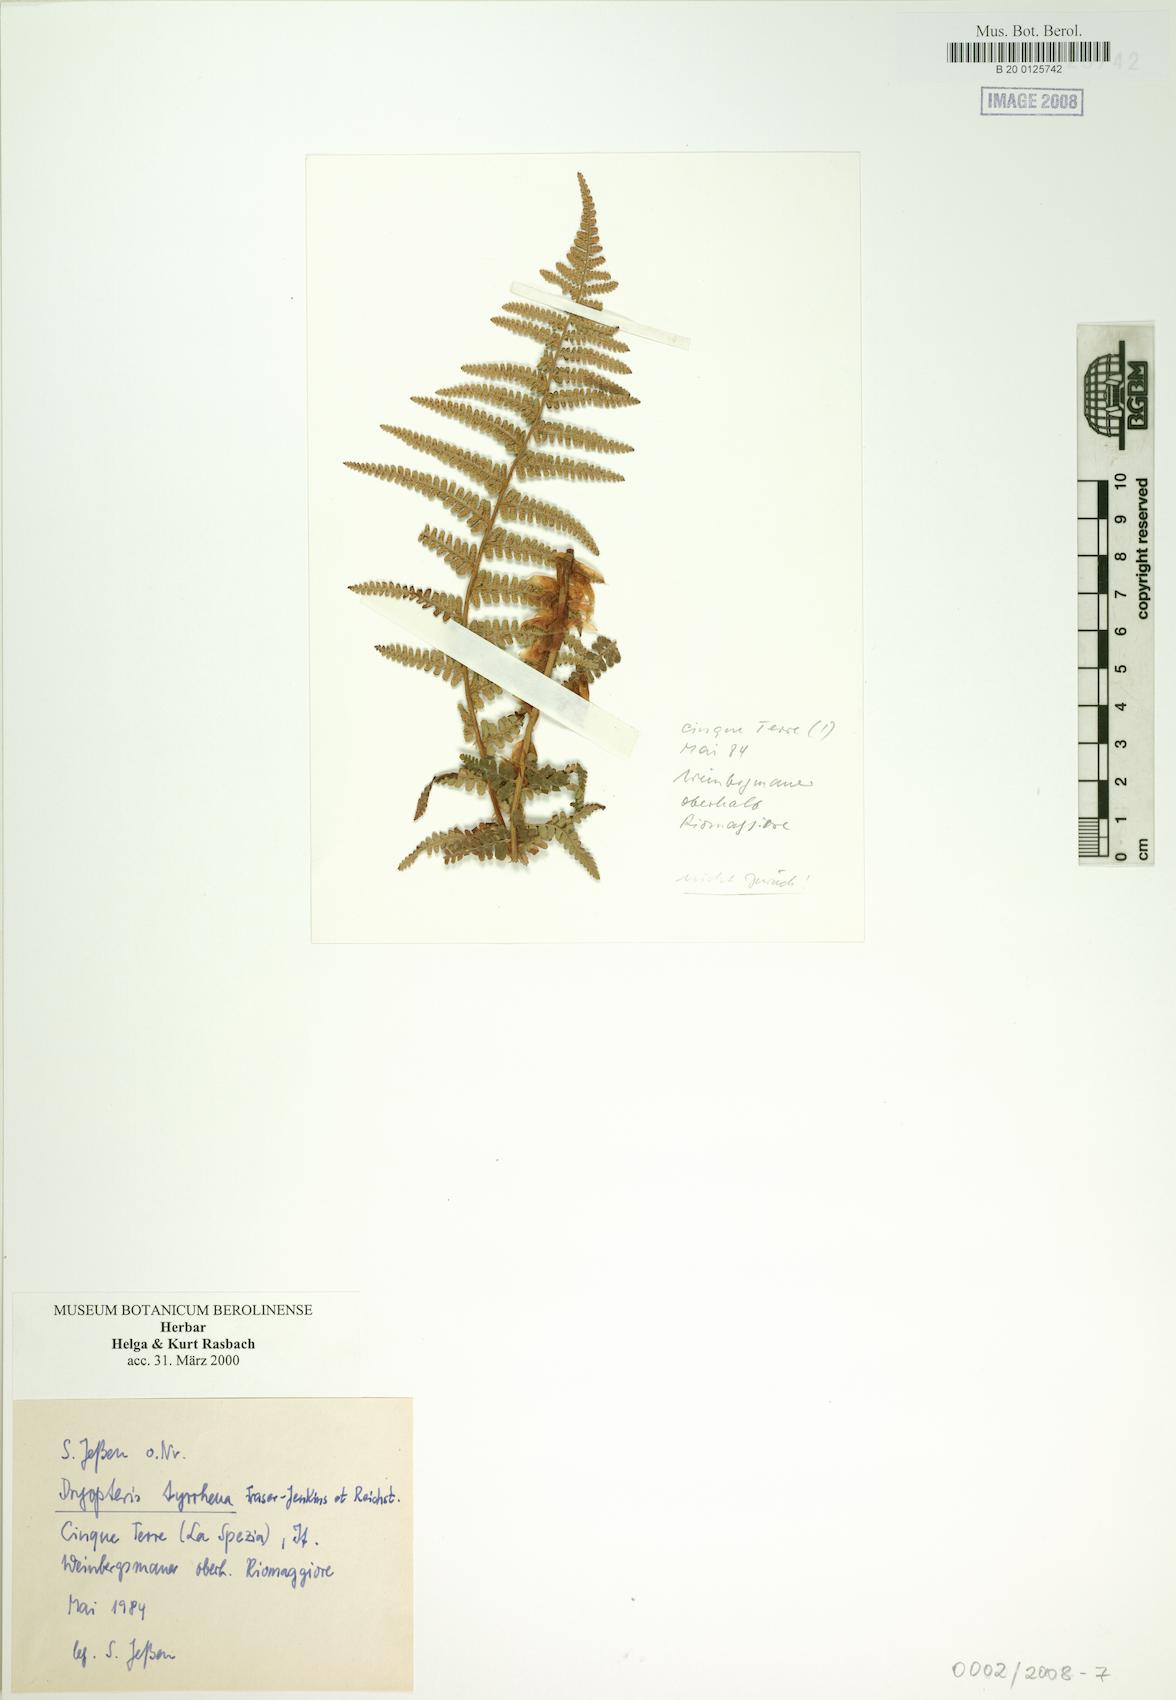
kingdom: Plantae
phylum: Tracheophyta
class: Polypodiopsida
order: Polypodiales
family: Dryopteridaceae
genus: Dryopteris
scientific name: Dryopteris tyrrhena
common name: Mediterranean buckler-fern
